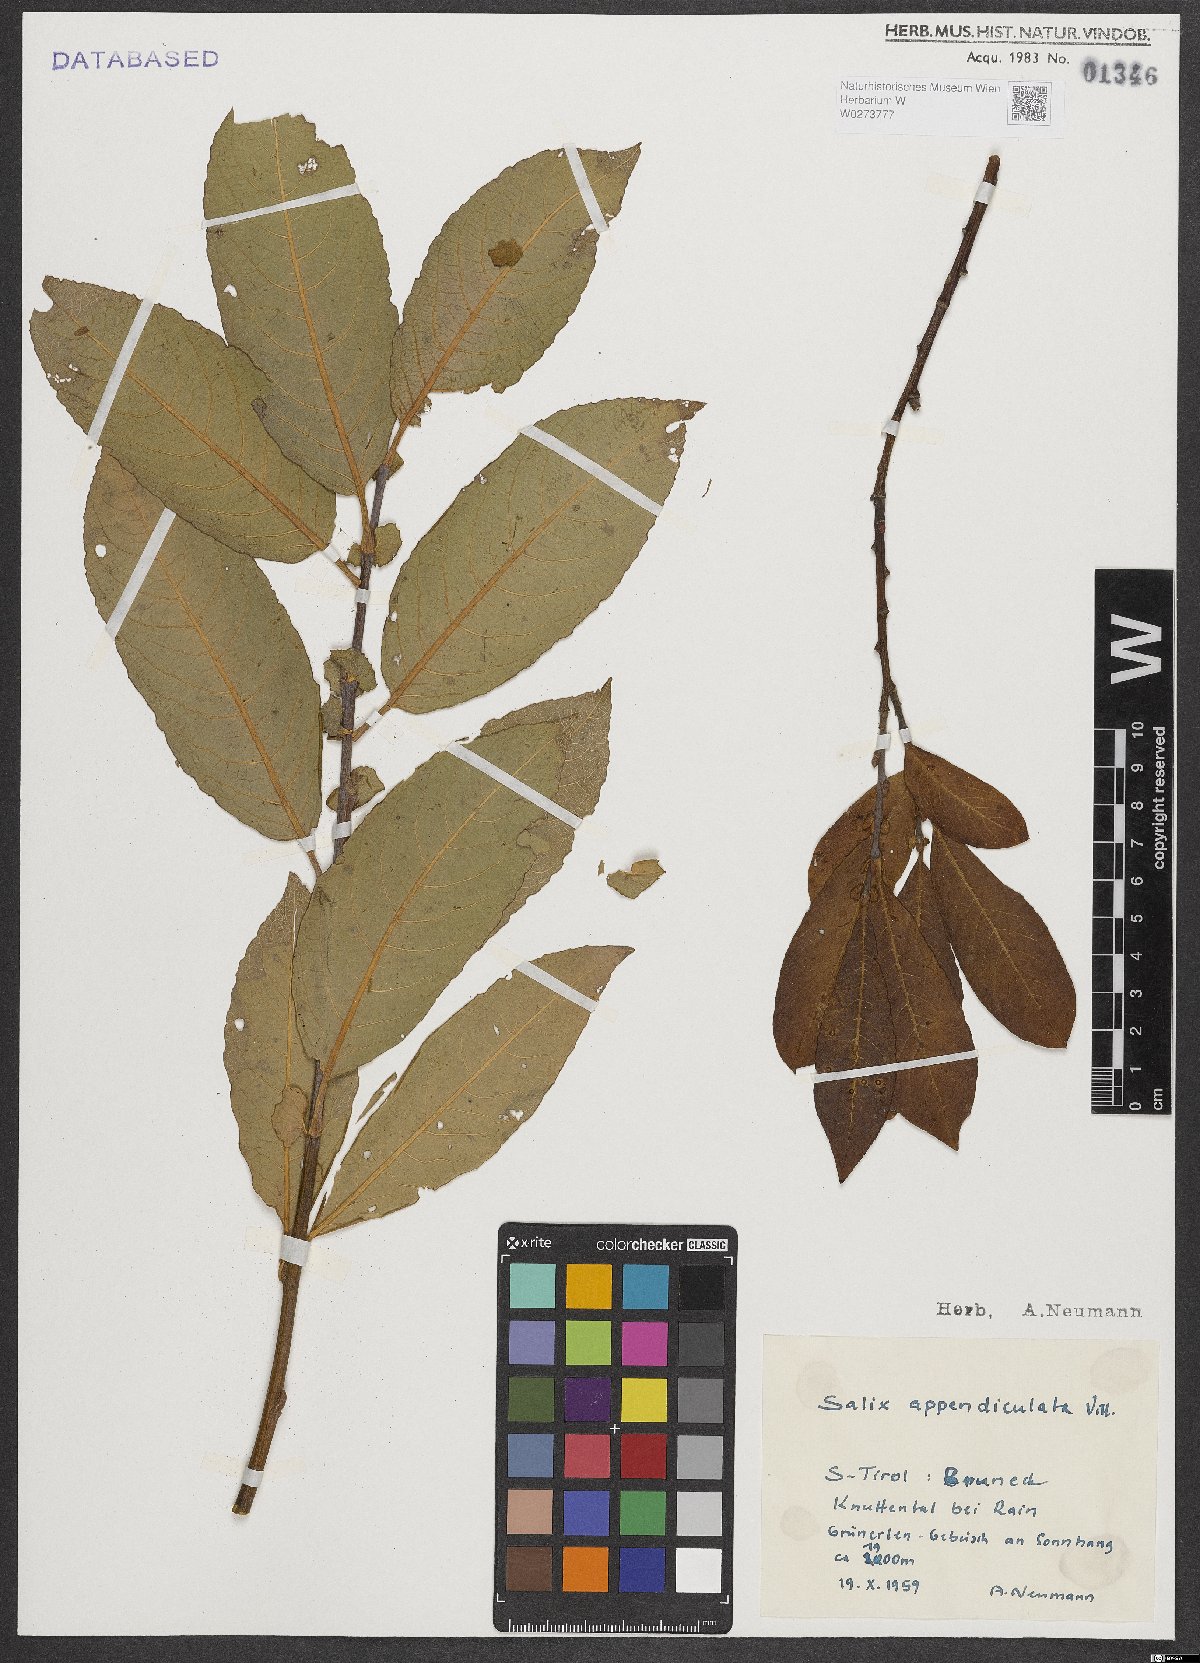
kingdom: Plantae
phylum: Tracheophyta
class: Magnoliopsida
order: Malpighiales
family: Salicaceae
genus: Salix
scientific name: Salix appendiculata
